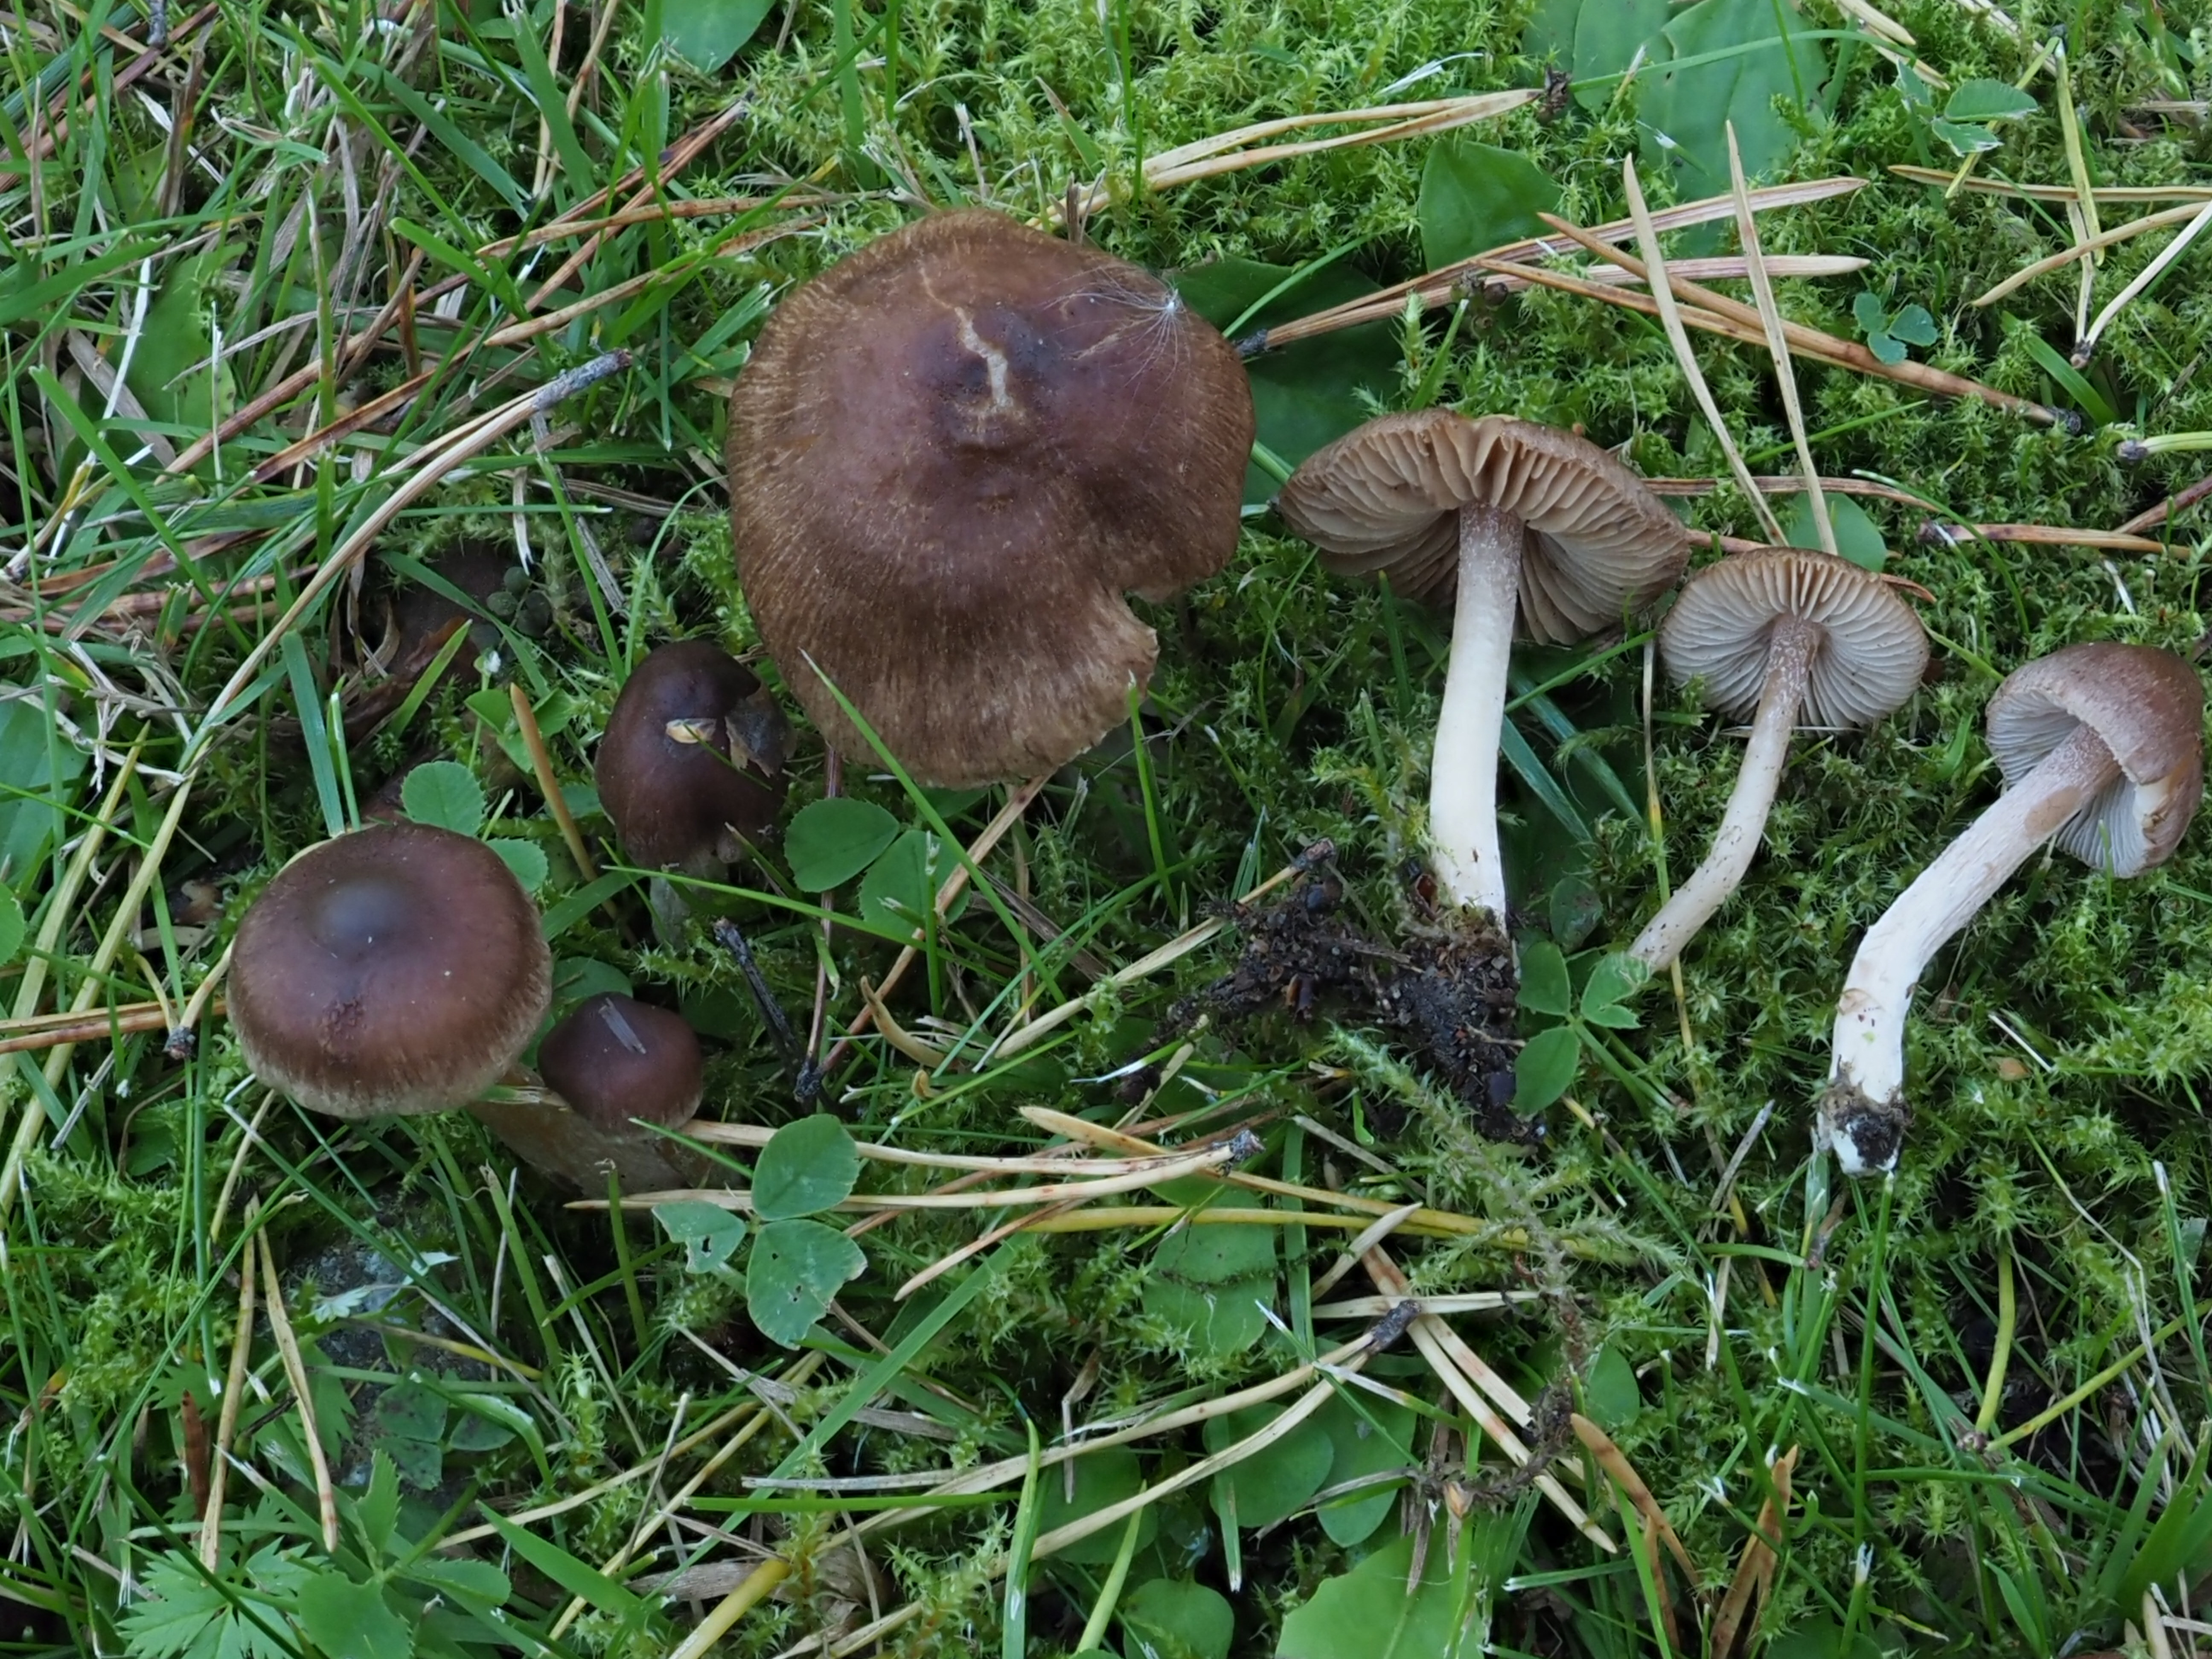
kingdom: Fungi
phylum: Basidiomycota
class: Agaricomycetes
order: Agaricales
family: Inocybaceae
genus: Inocybe
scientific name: Inocybe
